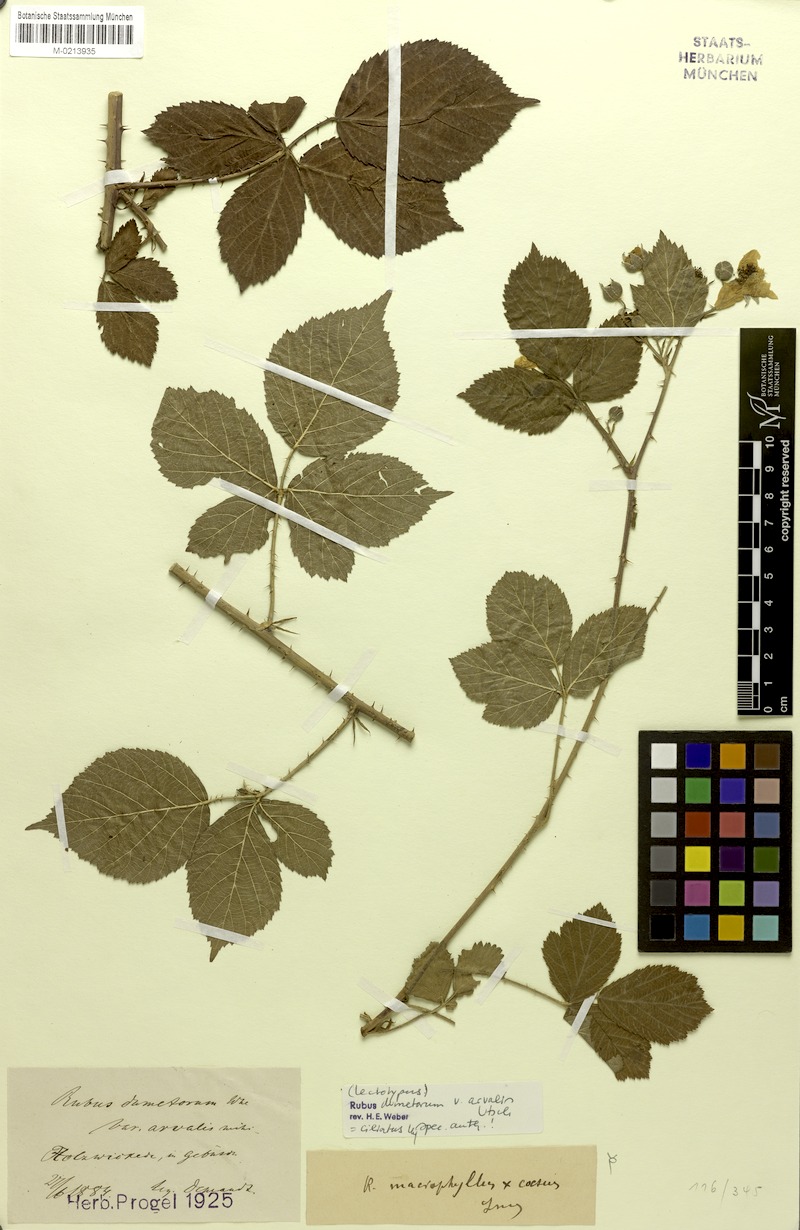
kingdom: Plantae
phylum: Tracheophyta
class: Magnoliopsida
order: Rosales
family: Rosaceae
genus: Rubus
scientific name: Rubus camptostachys
